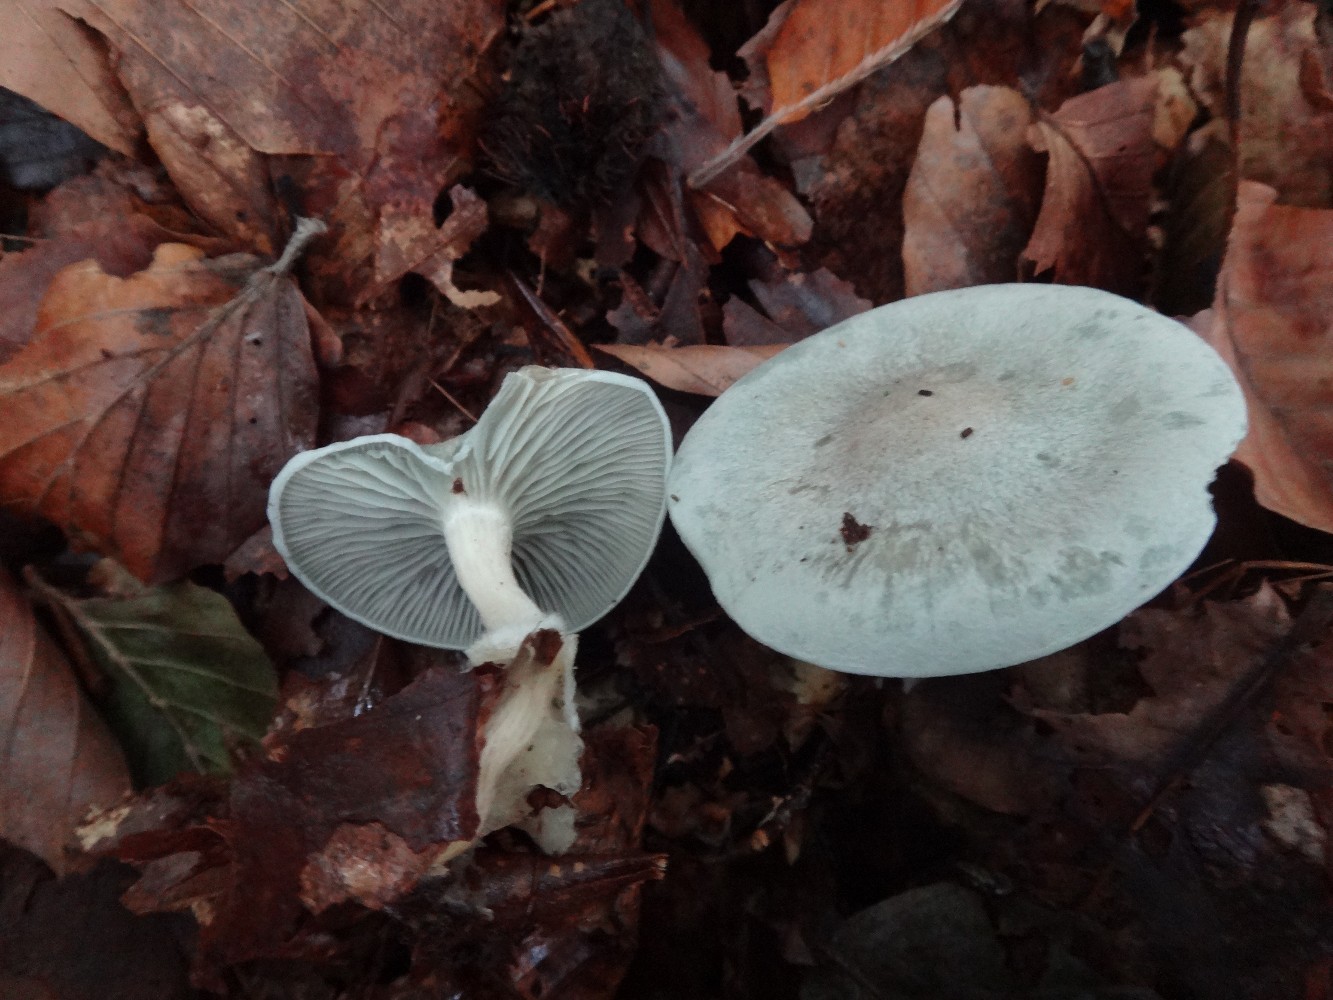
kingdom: Fungi
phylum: Basidiomycota
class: Agaricomycetes
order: Agaricales
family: Tricholomataceae
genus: Clitocybe
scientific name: Clitocybe odora
